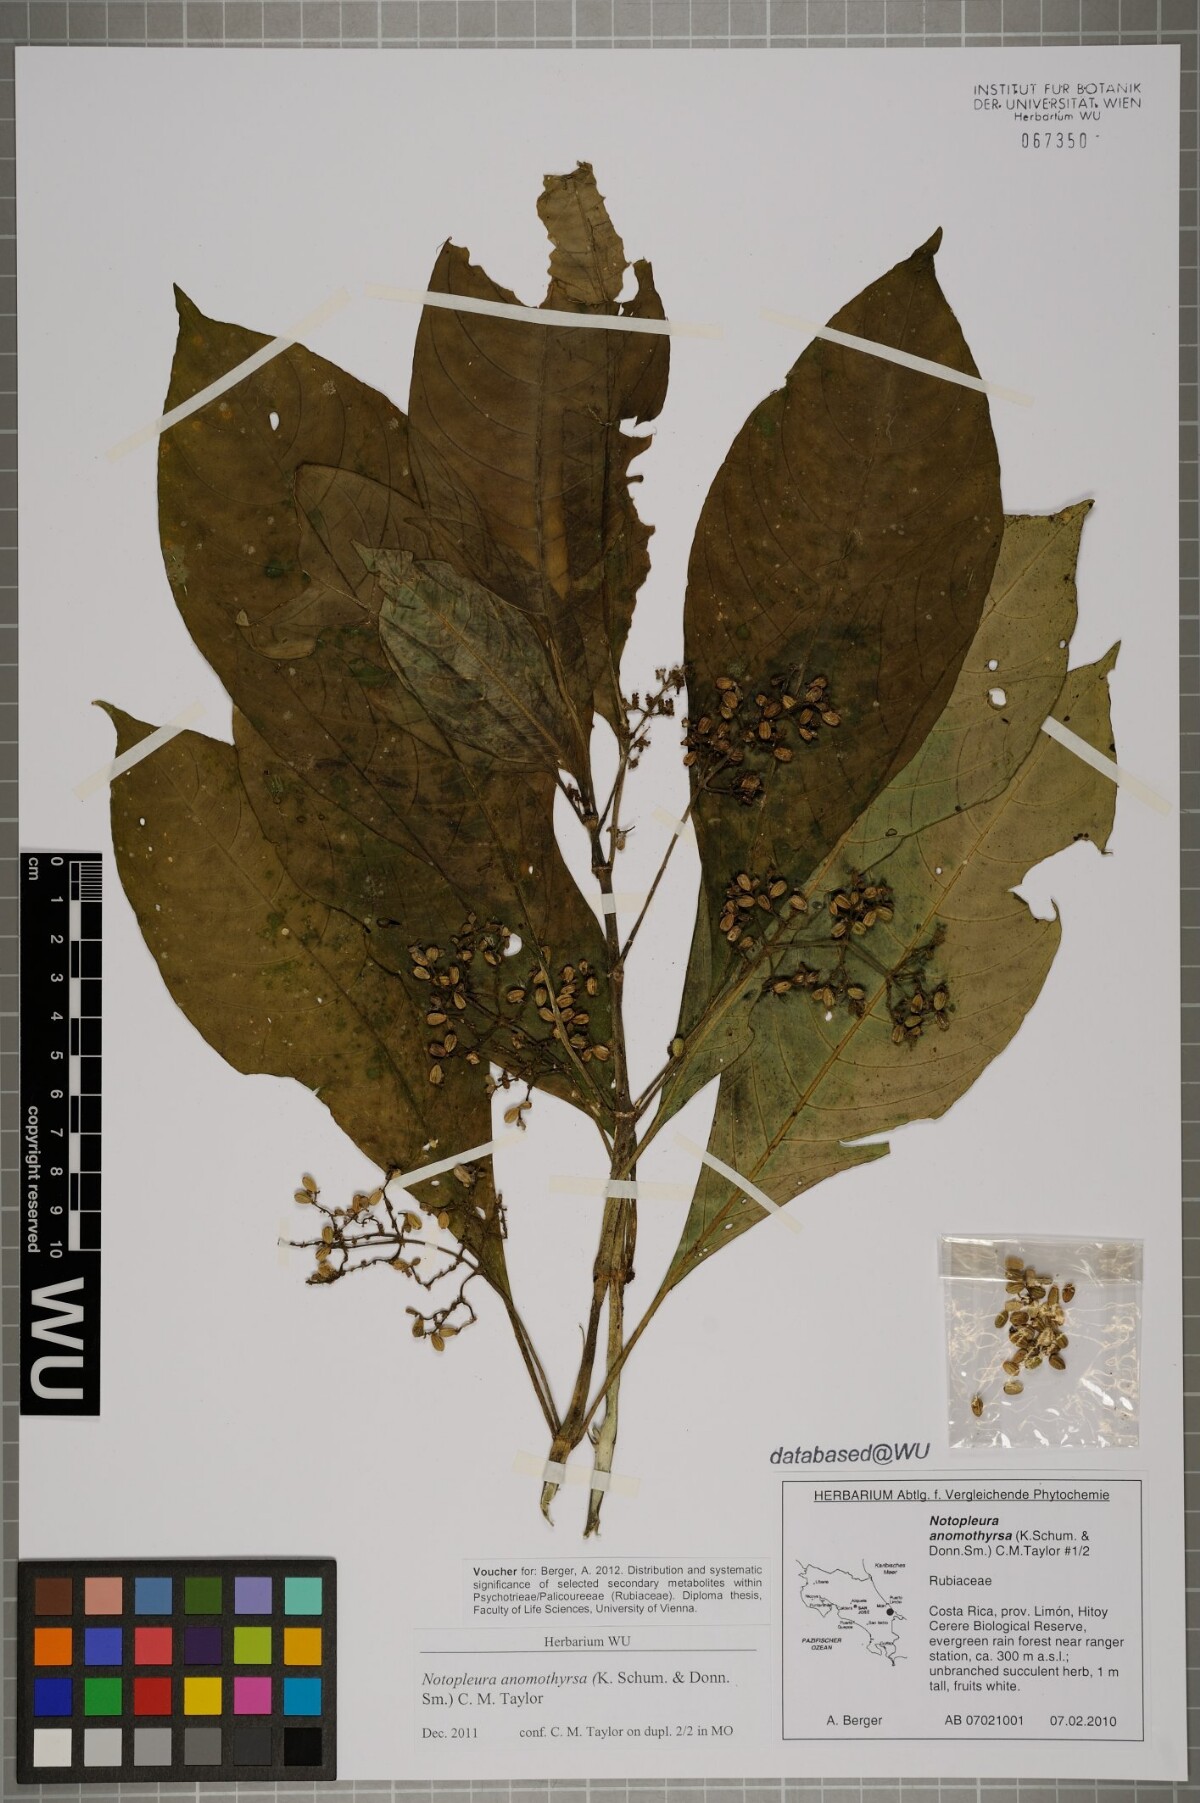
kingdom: Plantae
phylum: Tracheophyta
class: Magnoliopsida
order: Gentianales
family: Rubiaceae
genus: Notopleura
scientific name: Notopleura anomothyrsa
